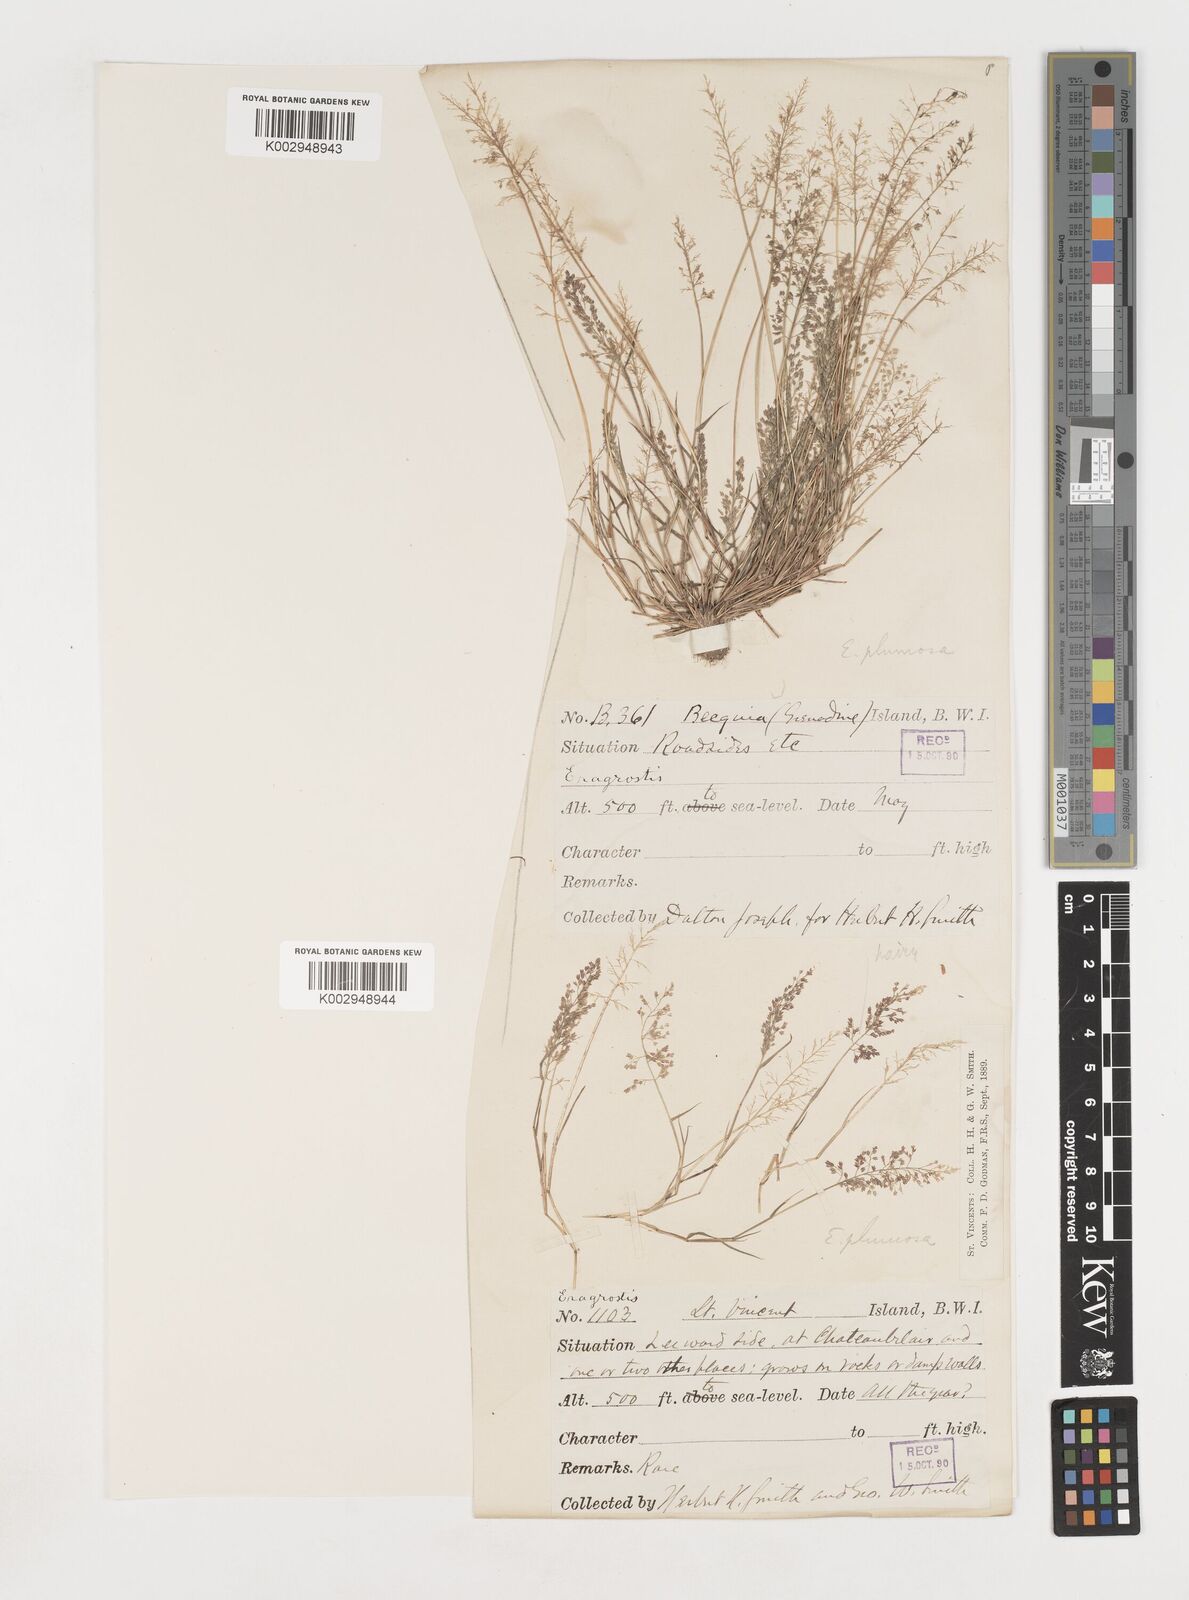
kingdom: Plantae
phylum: Tracheophyta
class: Liliopsida
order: Poales
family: Poaceae
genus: Eragrostis
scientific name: Eragrostis tenella
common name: Japanese lovegrass
